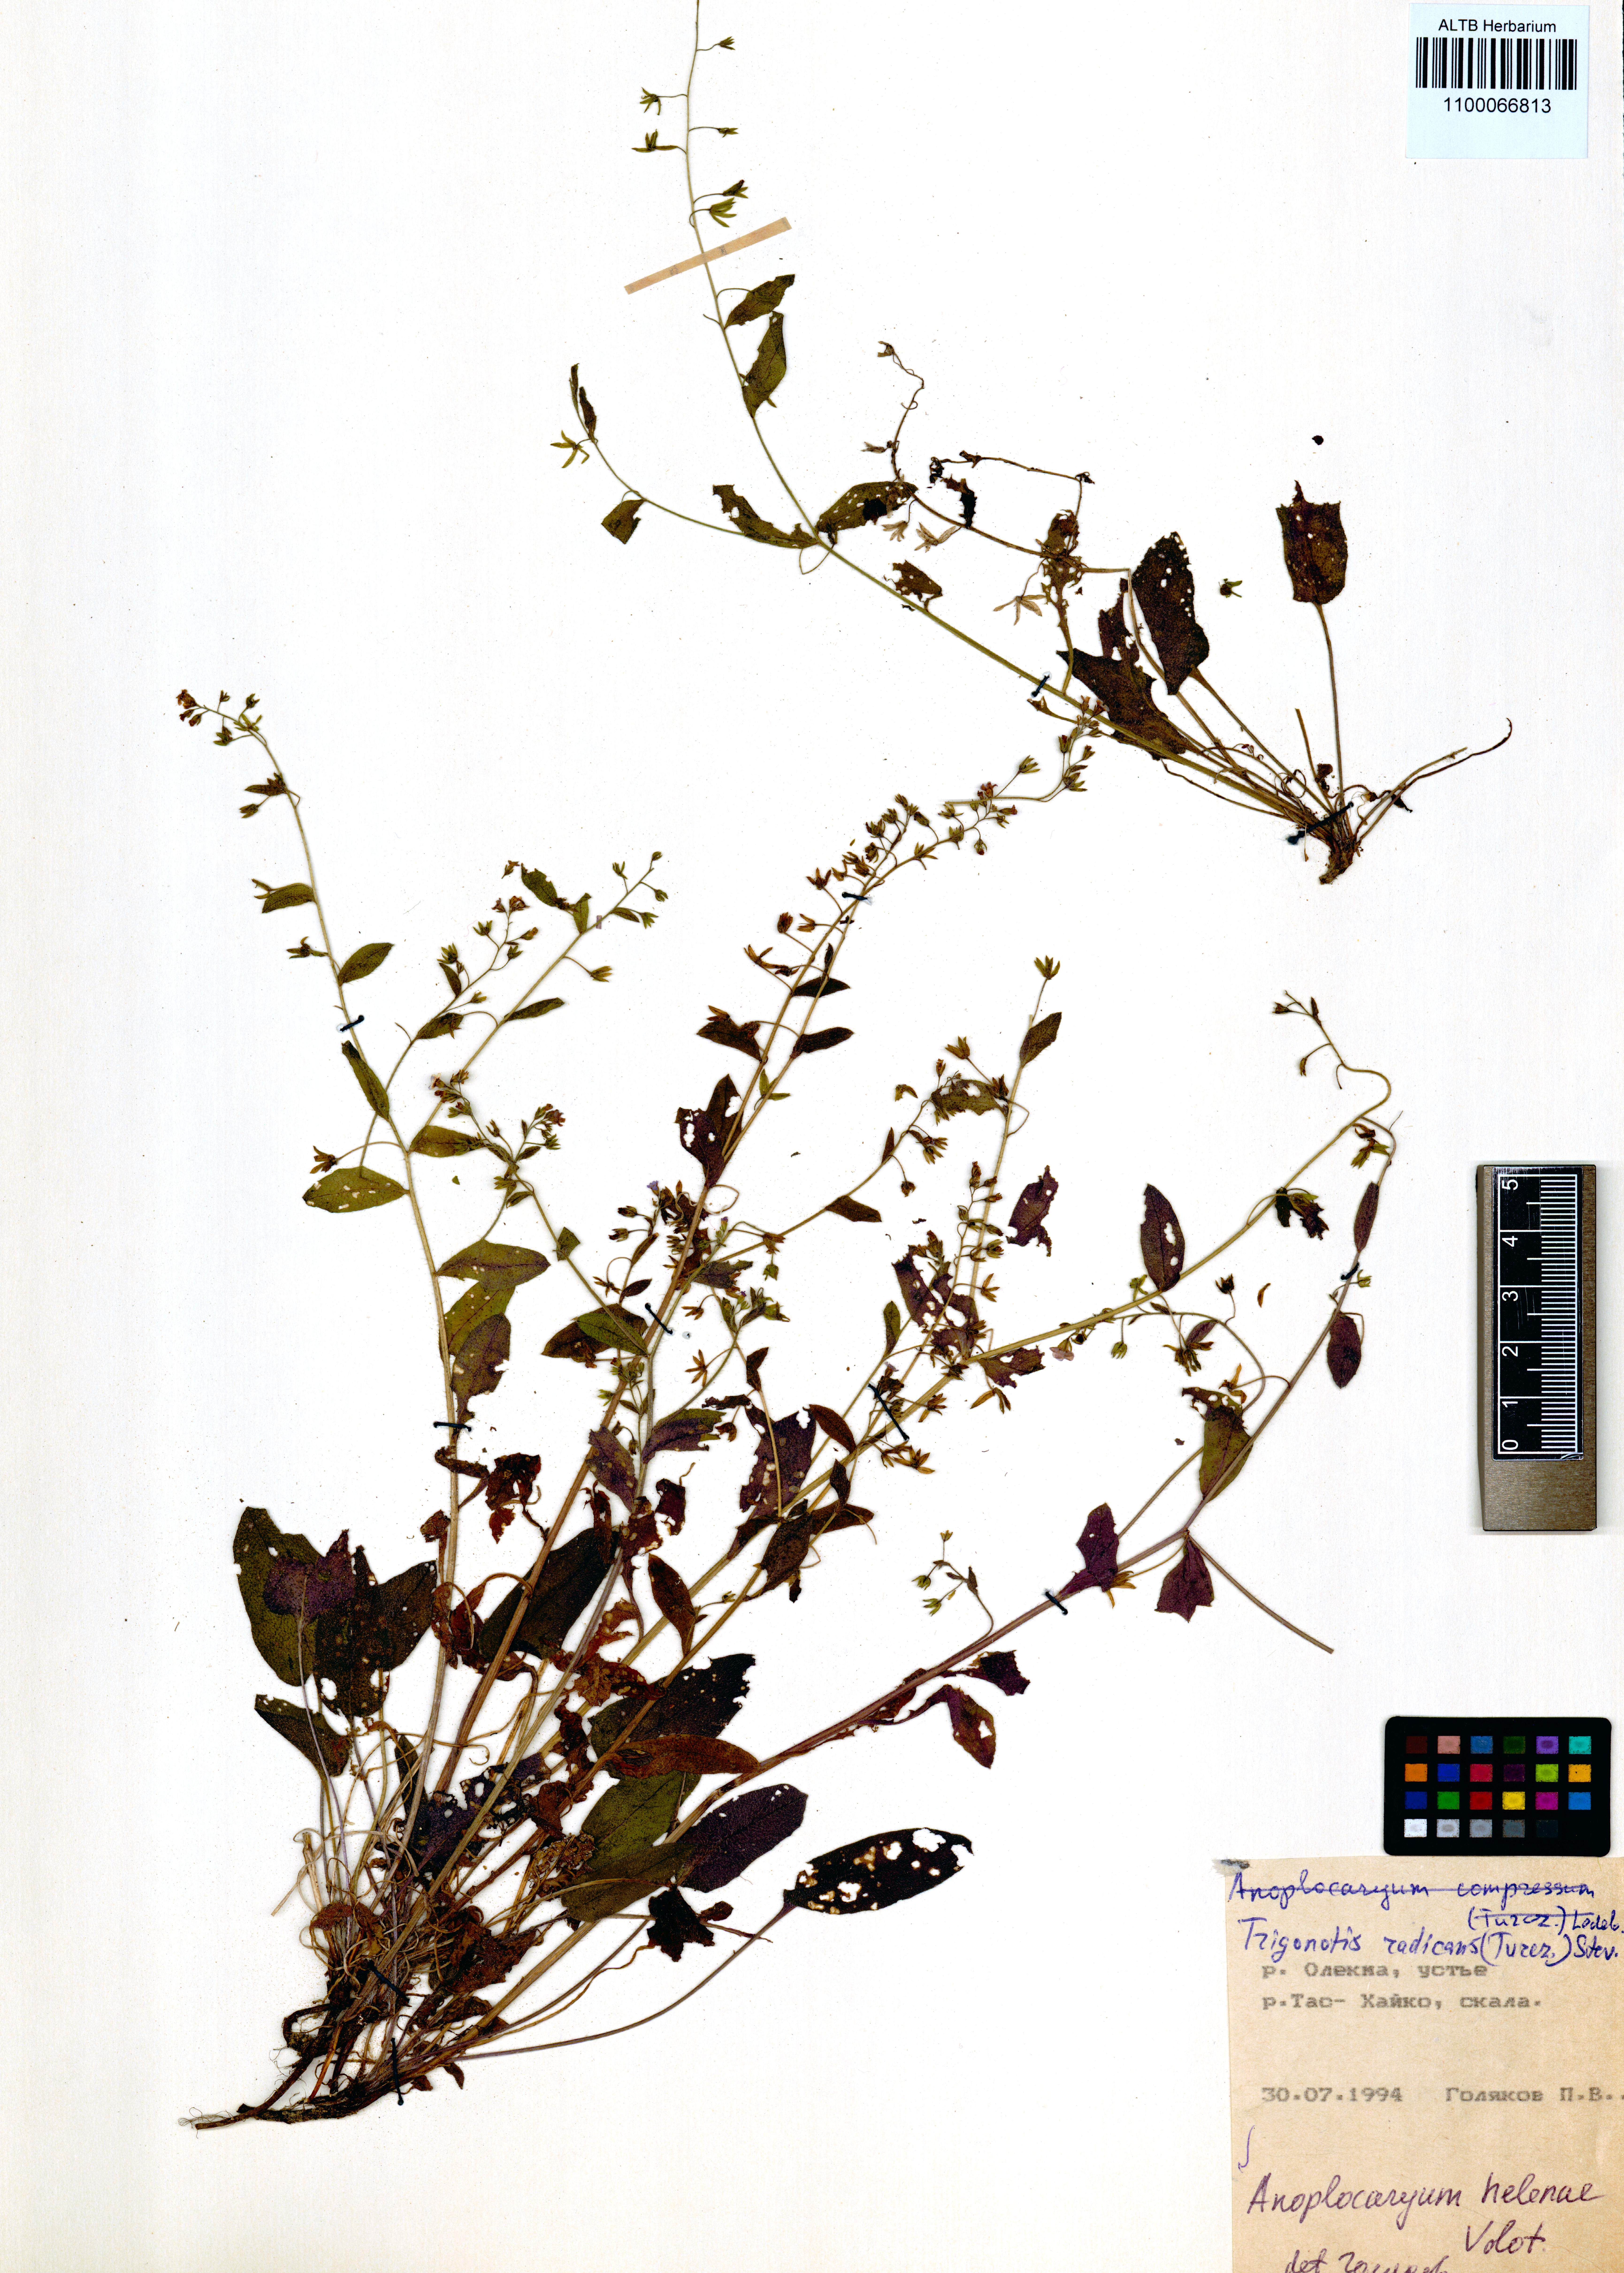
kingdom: Plantae
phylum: Tracheophyta
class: Magnoliopsida
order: Boraginales
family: Boraginaceae
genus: Anoplocaryum
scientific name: Anoplocaryum helenae
